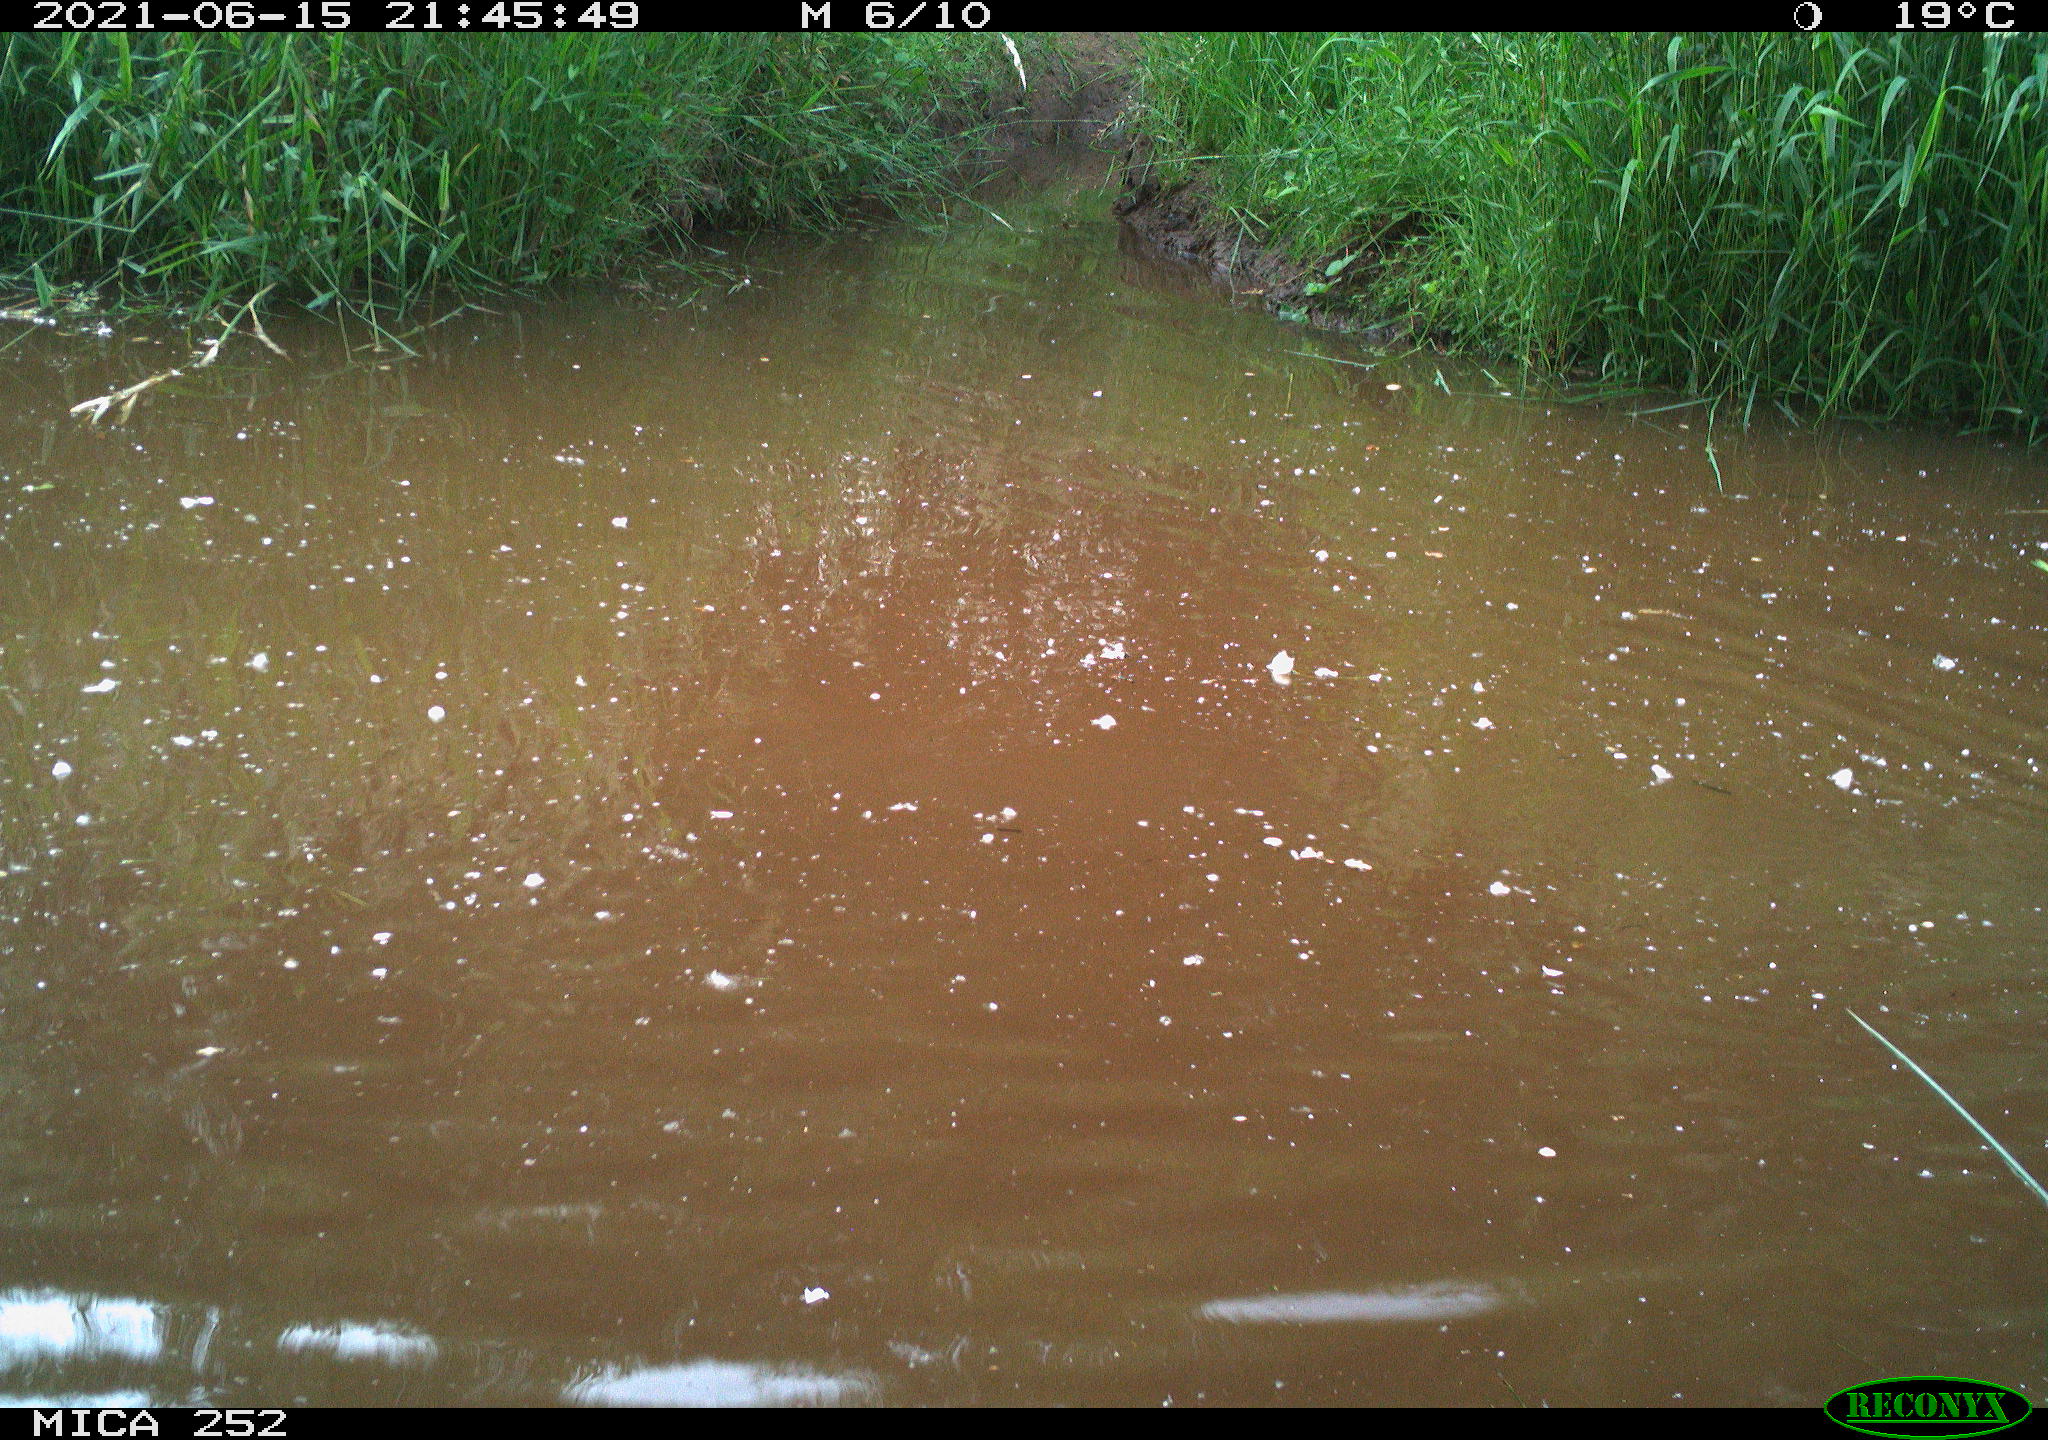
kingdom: Animalia
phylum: Chordata
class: Aves
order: Anseriformes
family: Anatidae
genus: Anas
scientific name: Anas
